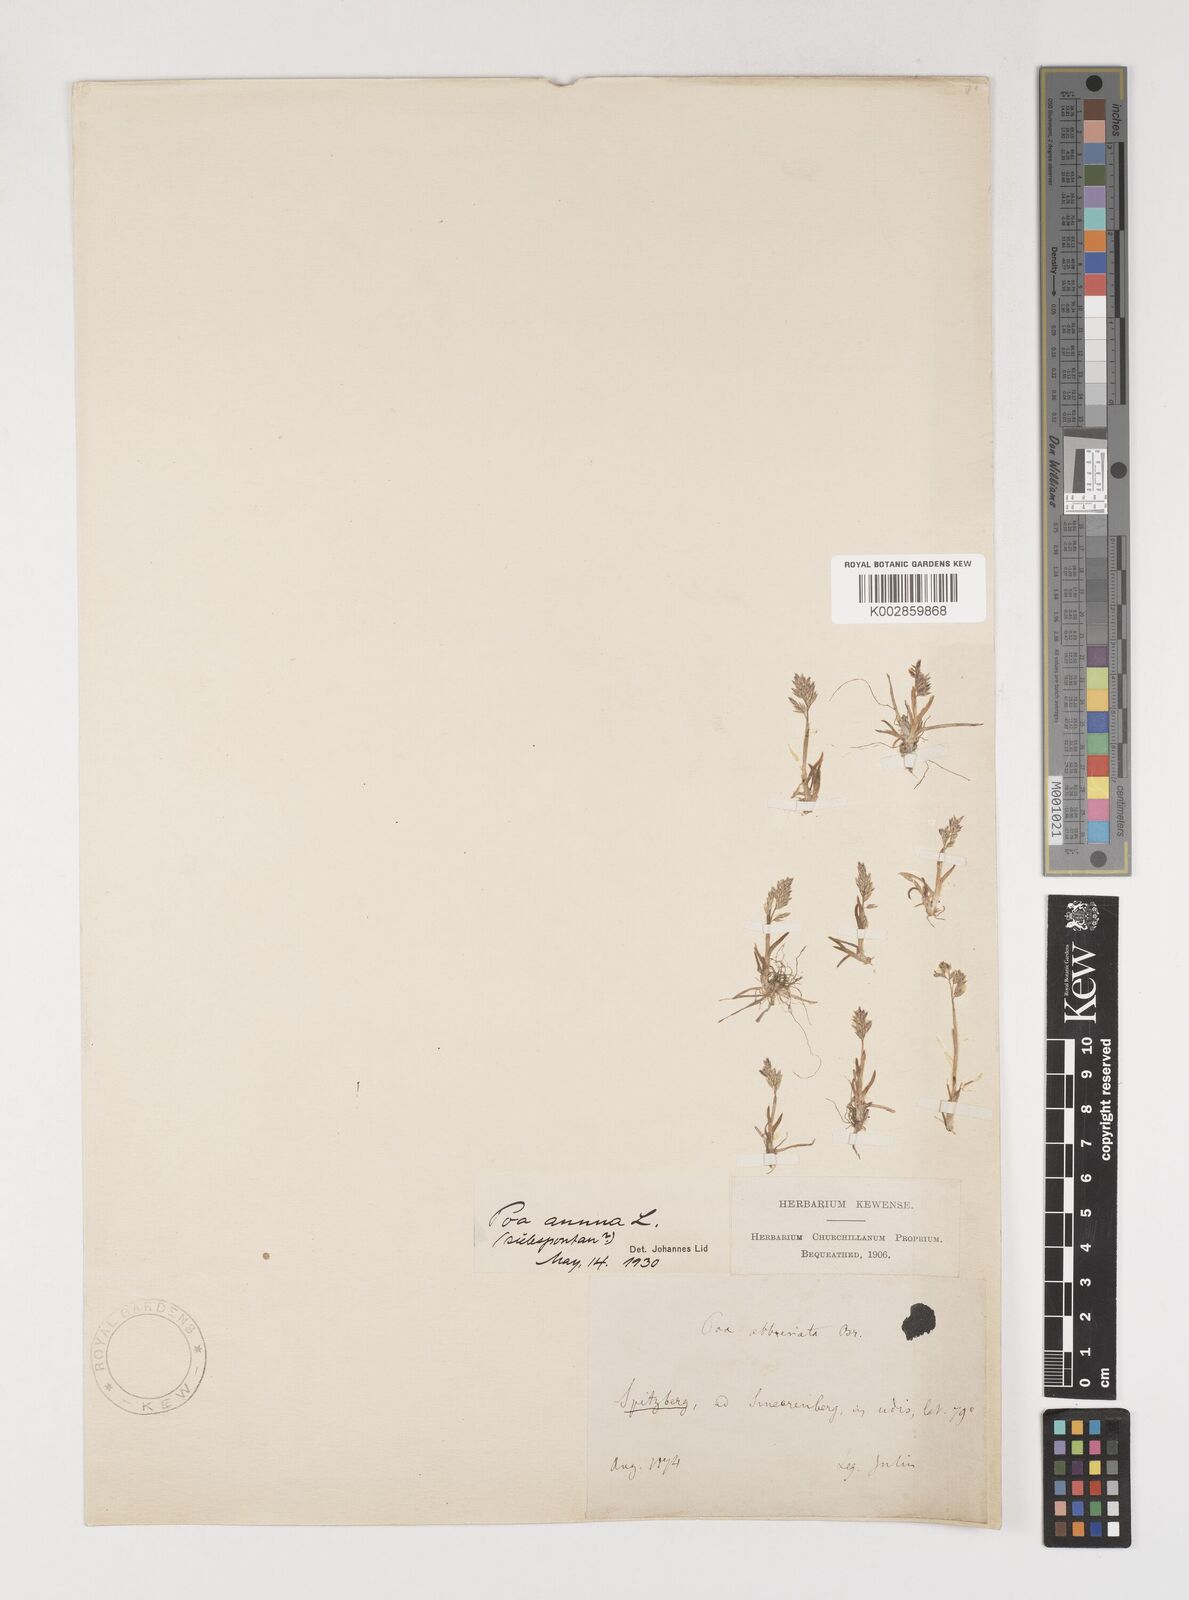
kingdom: Plantae
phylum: Tracheophyta
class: Liliopsida
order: Poales
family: Poaceae
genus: Poa
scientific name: Poa annua
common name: Annual bluegrass
